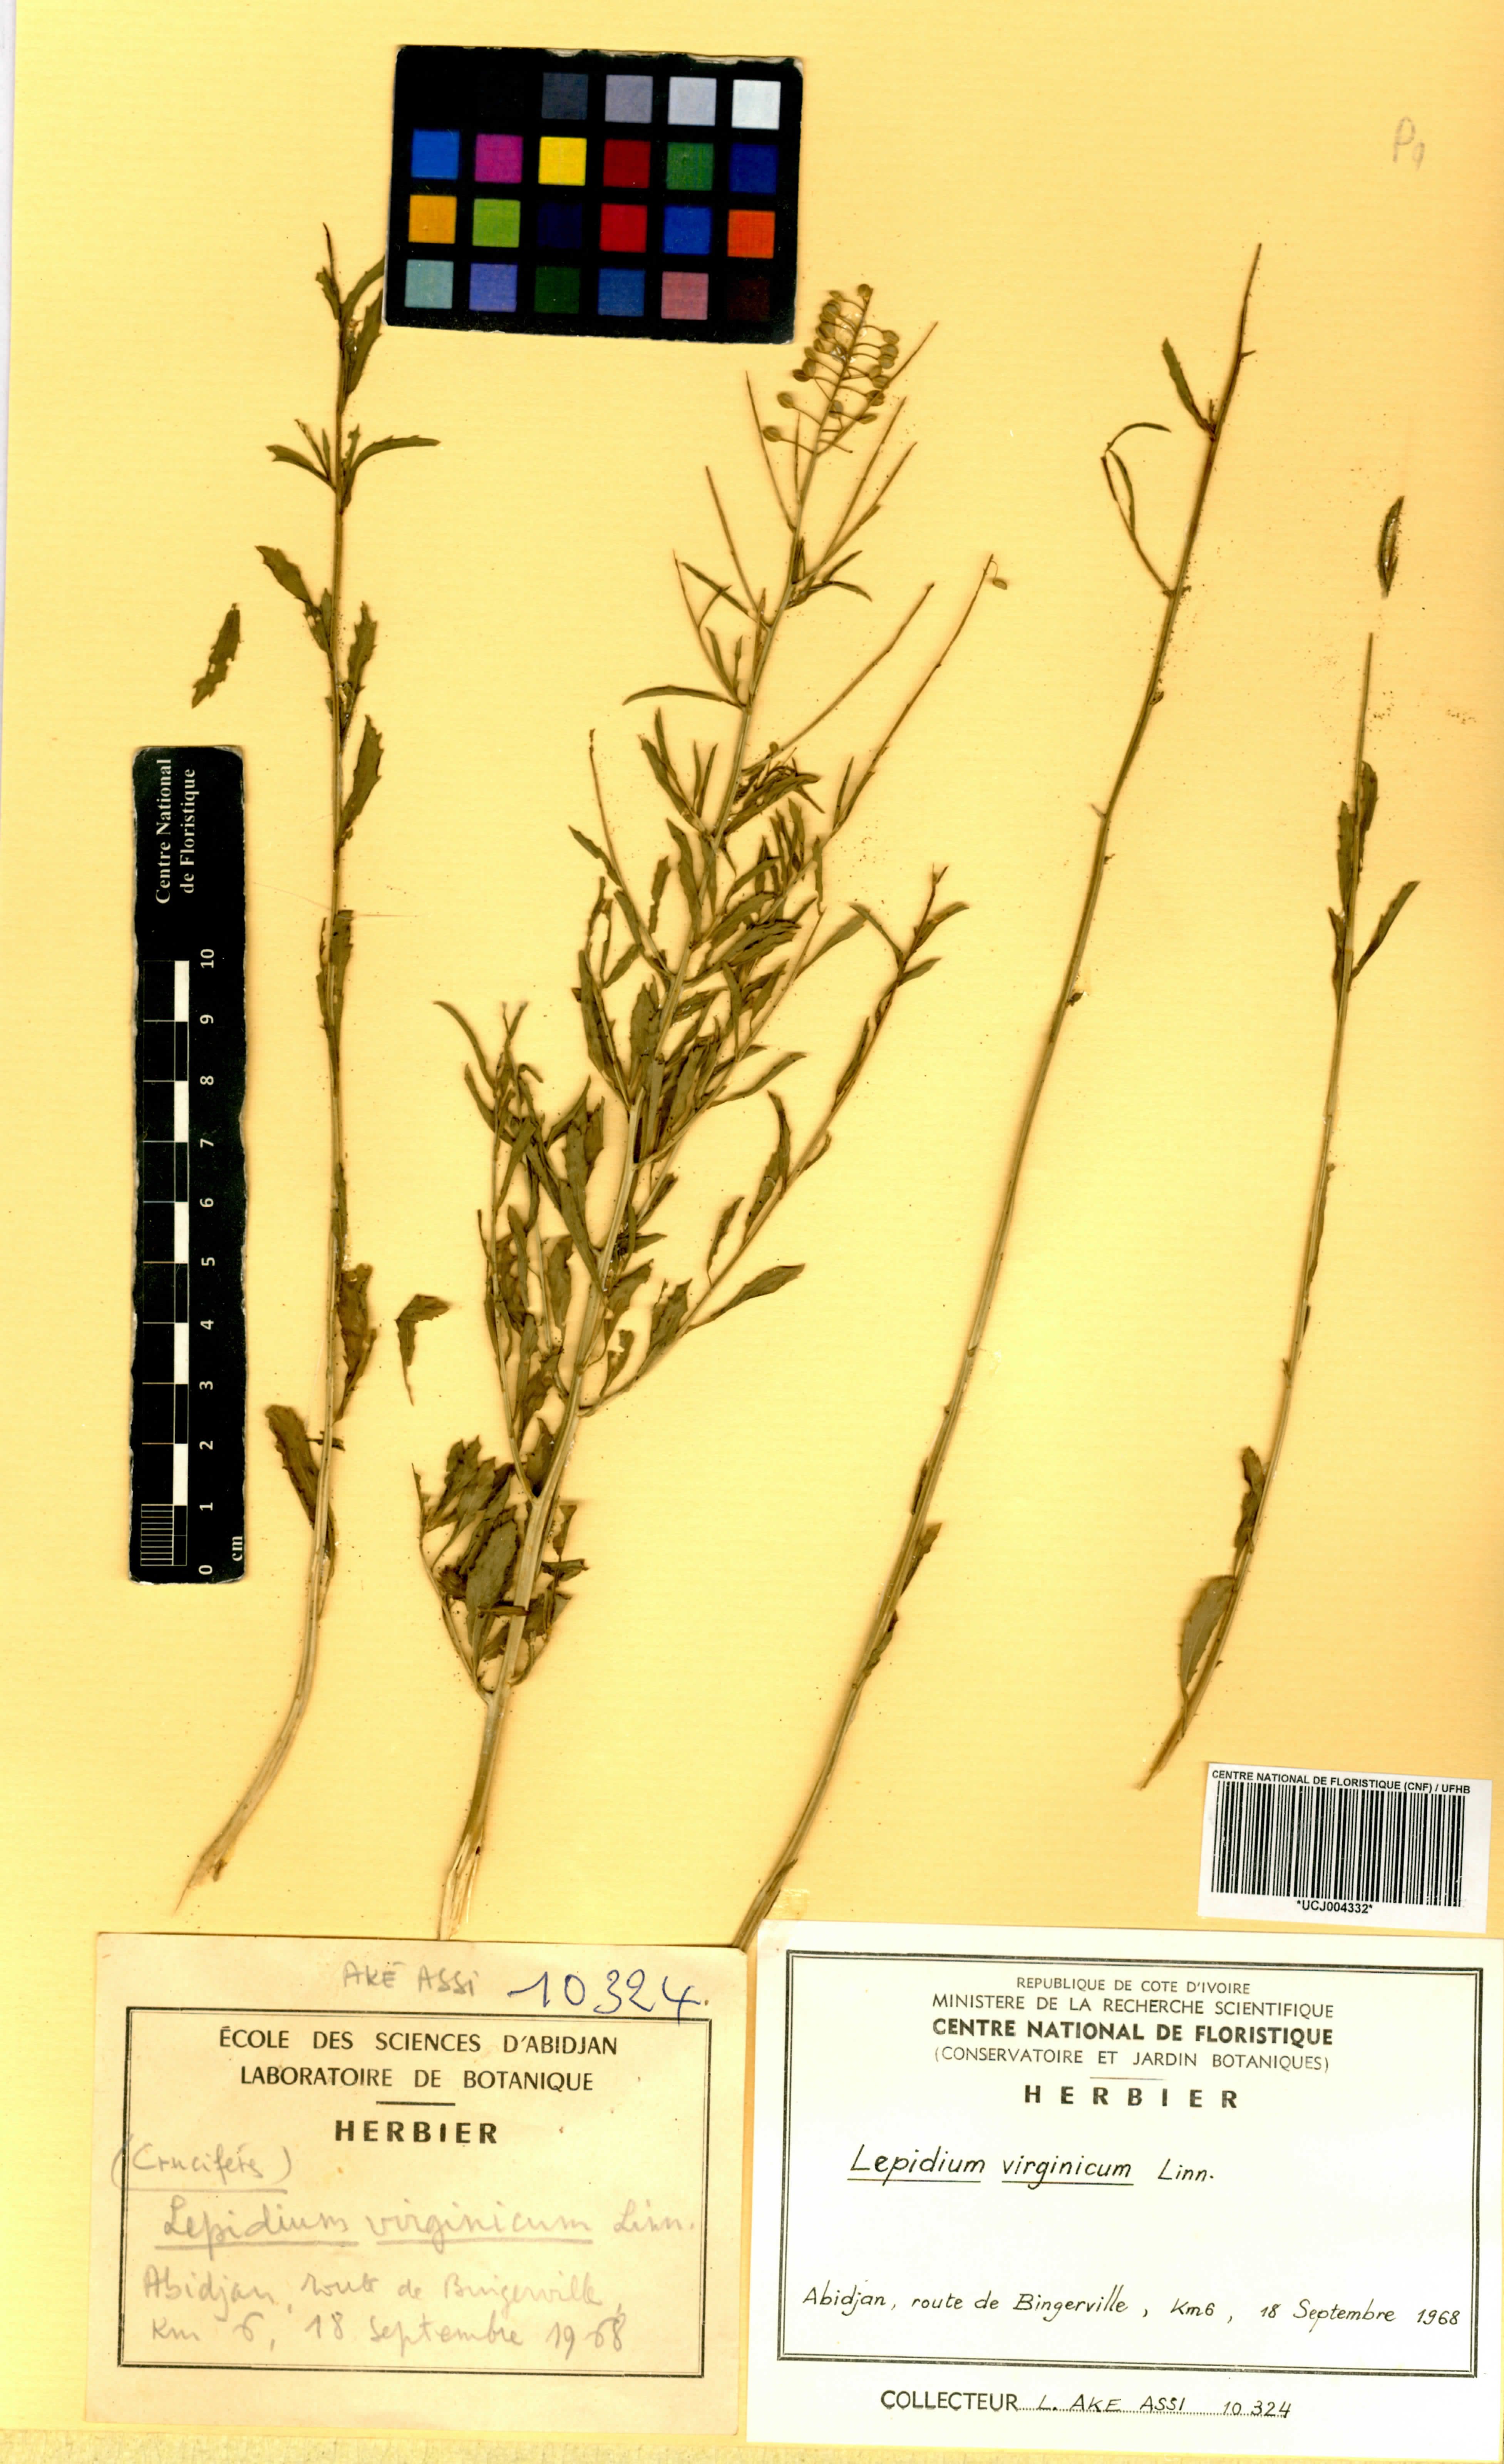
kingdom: Plantae
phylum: Tracheophyta
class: Magnoliopsida
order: Brassicales
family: Brassicaceae
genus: Lepidium
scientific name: Lepidium virginicum
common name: Least pepperwort
